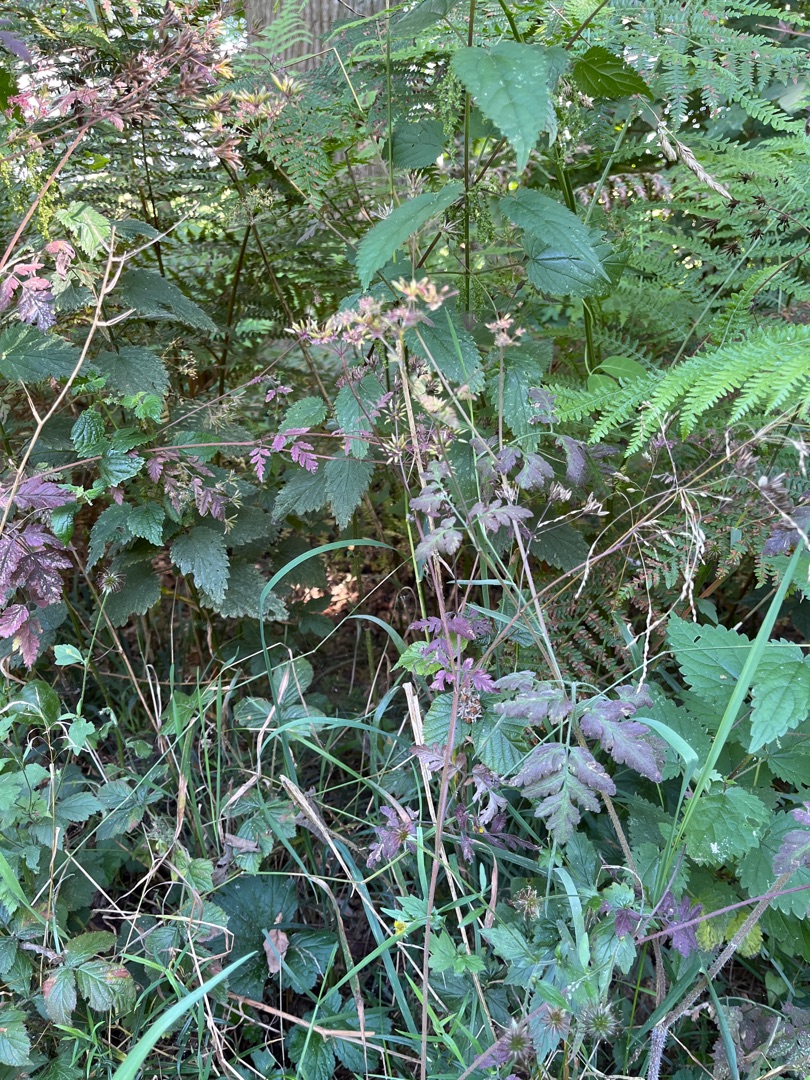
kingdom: Plantae
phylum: Tracheophyta
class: Magnoliopsida
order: Apiales
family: Apiaceae
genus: Chaerophyllum
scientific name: Chaerophyllum temulum
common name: Almindelig hulsvøb
